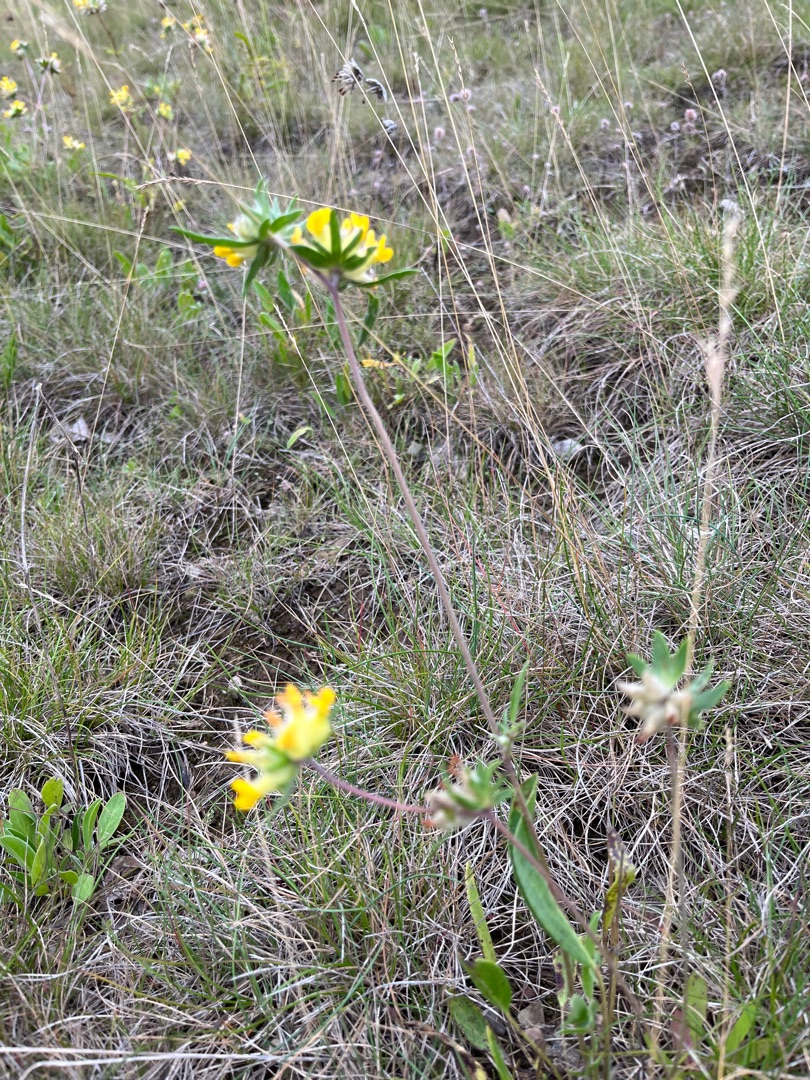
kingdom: Plantae
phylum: Tracheophyta
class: Magnoliopsida
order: Fabales
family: Fabaceae
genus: Anthyllis
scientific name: Anthyllis vulneraria
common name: Rundbælg
